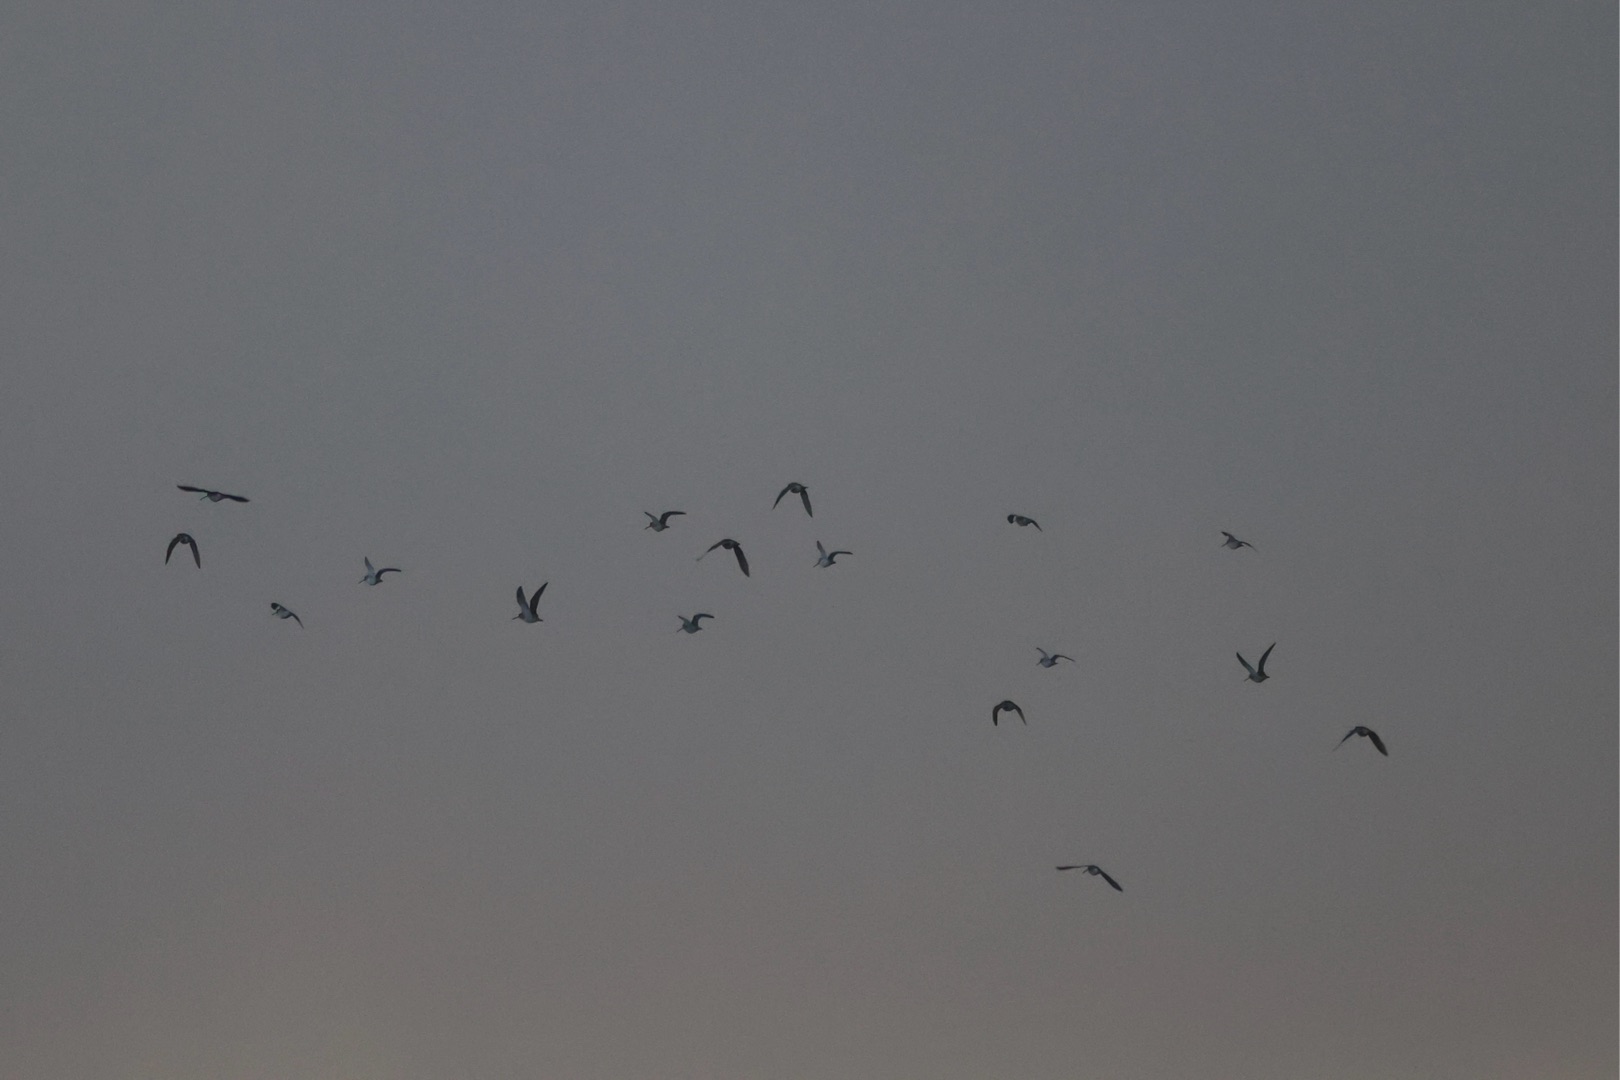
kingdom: Animalia
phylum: Chordata
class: Aves
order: Charadriiformes
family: Scolopacidae
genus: Gallinago
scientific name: Gallinago gallinago
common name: Dobbeltbekkasin
